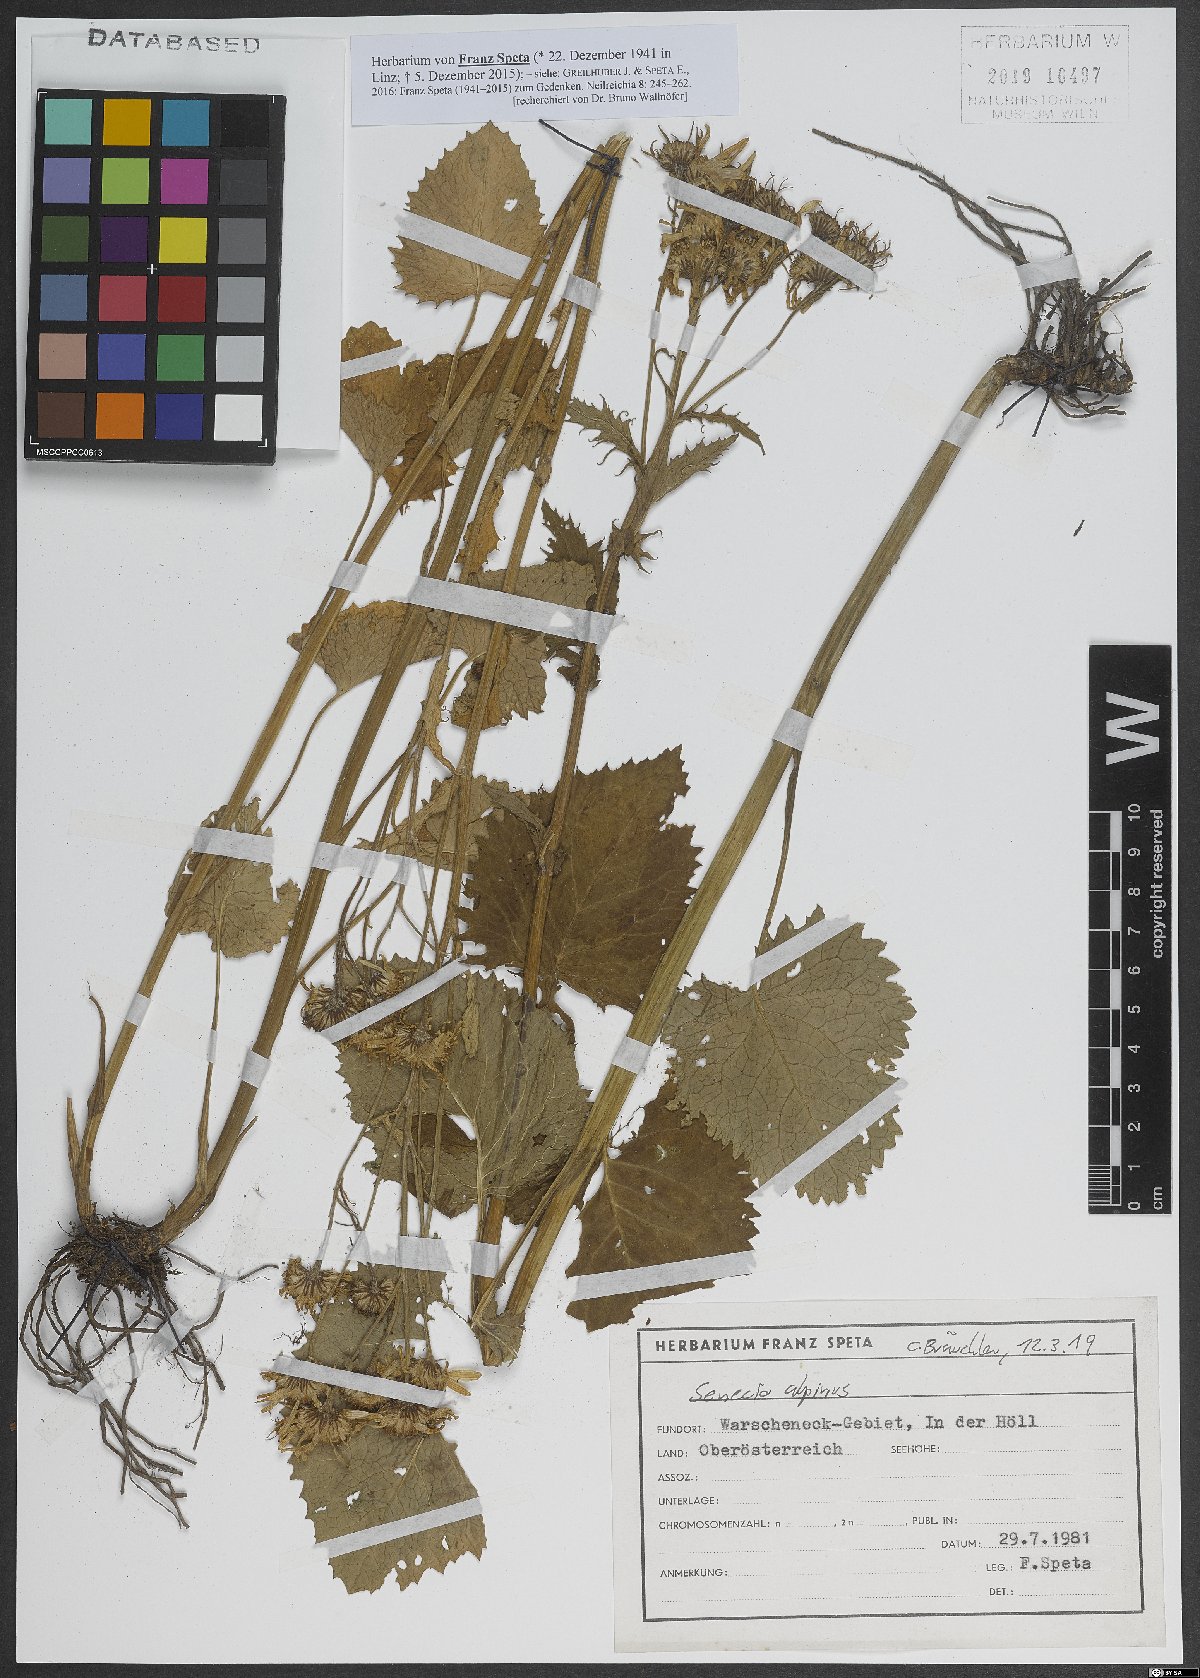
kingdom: Plantae
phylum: Tracheophyta
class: Magnoliopsida
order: Asterales
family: Asteraceae
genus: Jacobaea
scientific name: Jacobaea alpina
